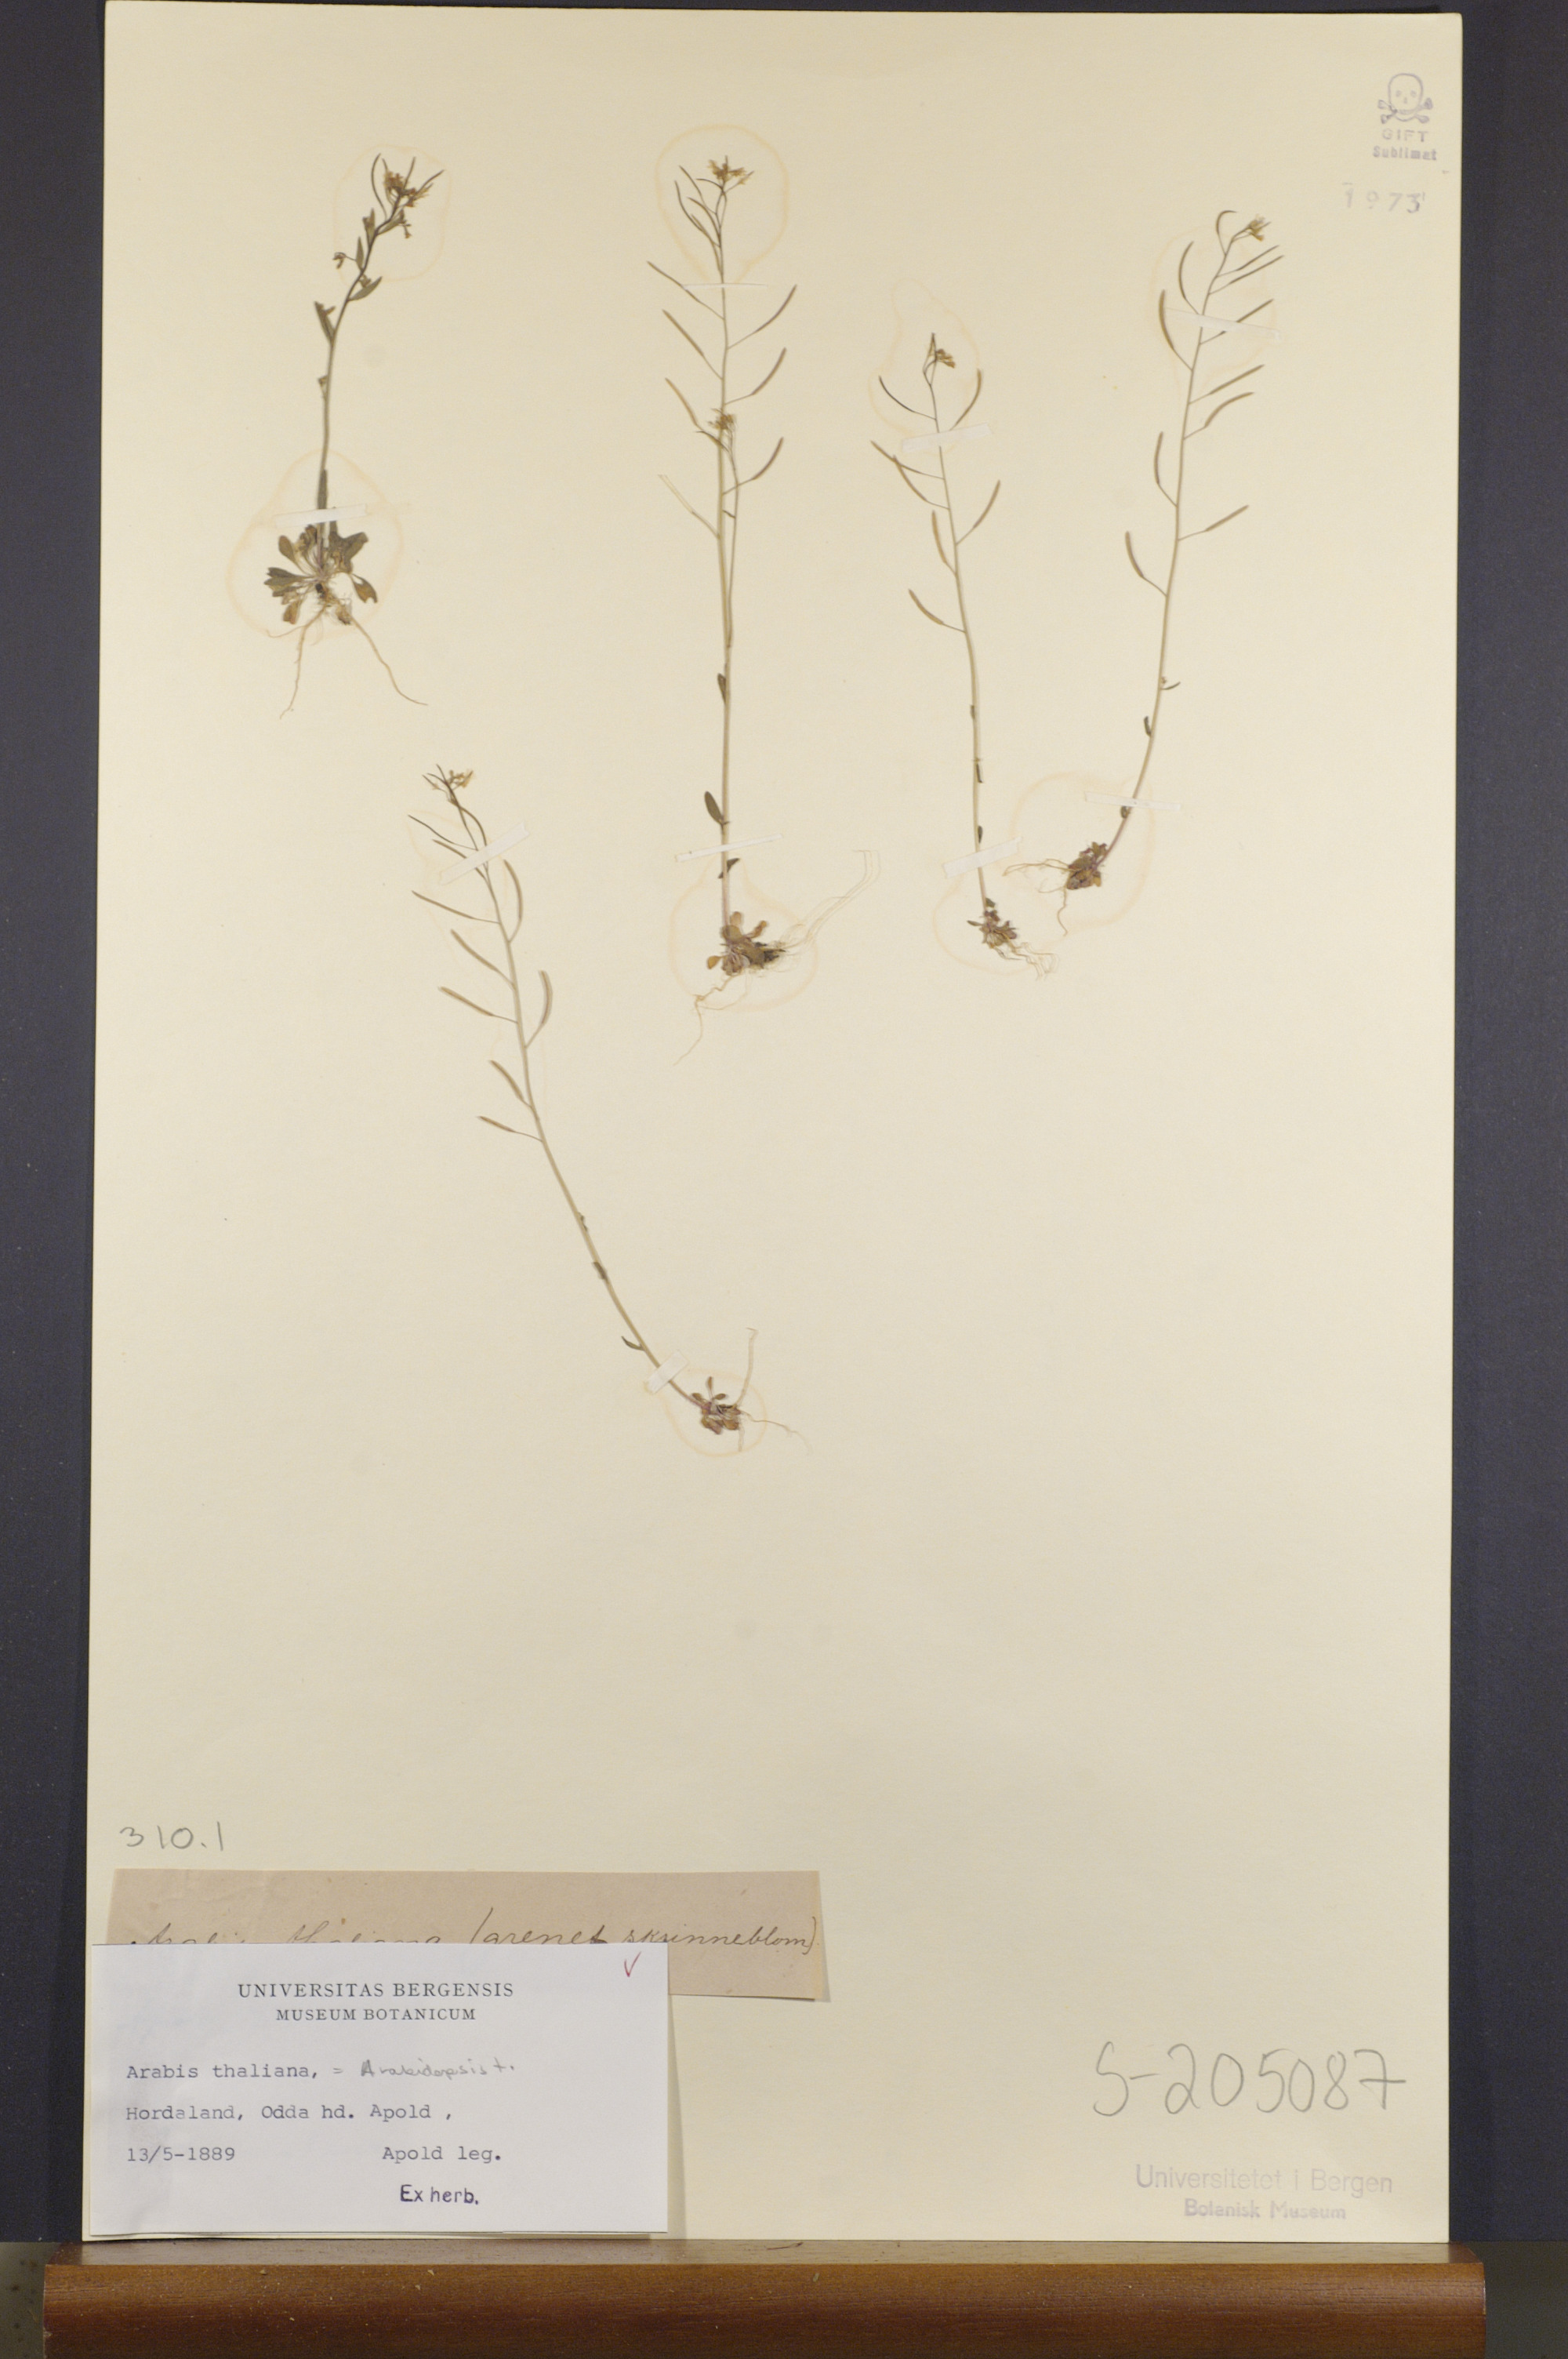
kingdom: Plantae
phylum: Tracheophyta
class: Magnoliopsida
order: Brassicales
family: Brassicaceae
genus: Arabidopsis
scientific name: Arabidopsis thaliana
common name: Thale cress
